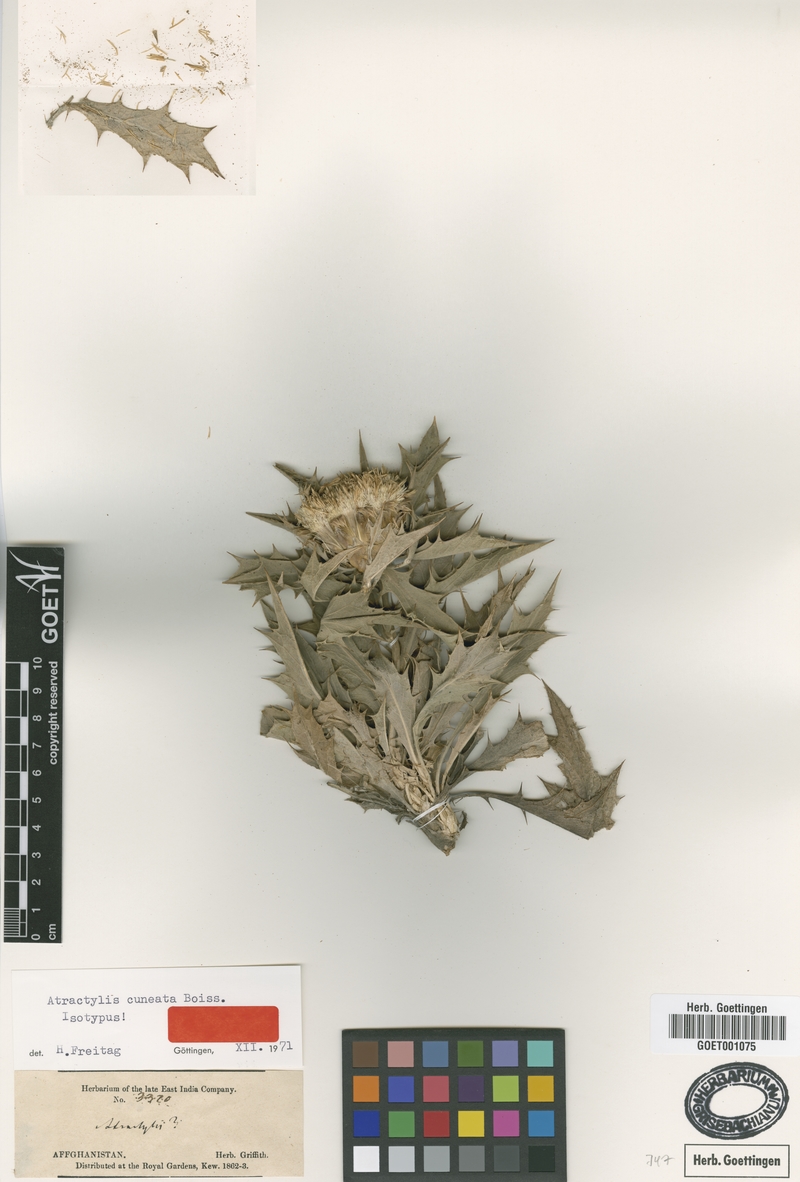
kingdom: Plantae
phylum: Tracheophyta
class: Magnoliopsida
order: Asterales
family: Asteraceae
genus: Chamaeleon
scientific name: Chamaeleon cuneatus
